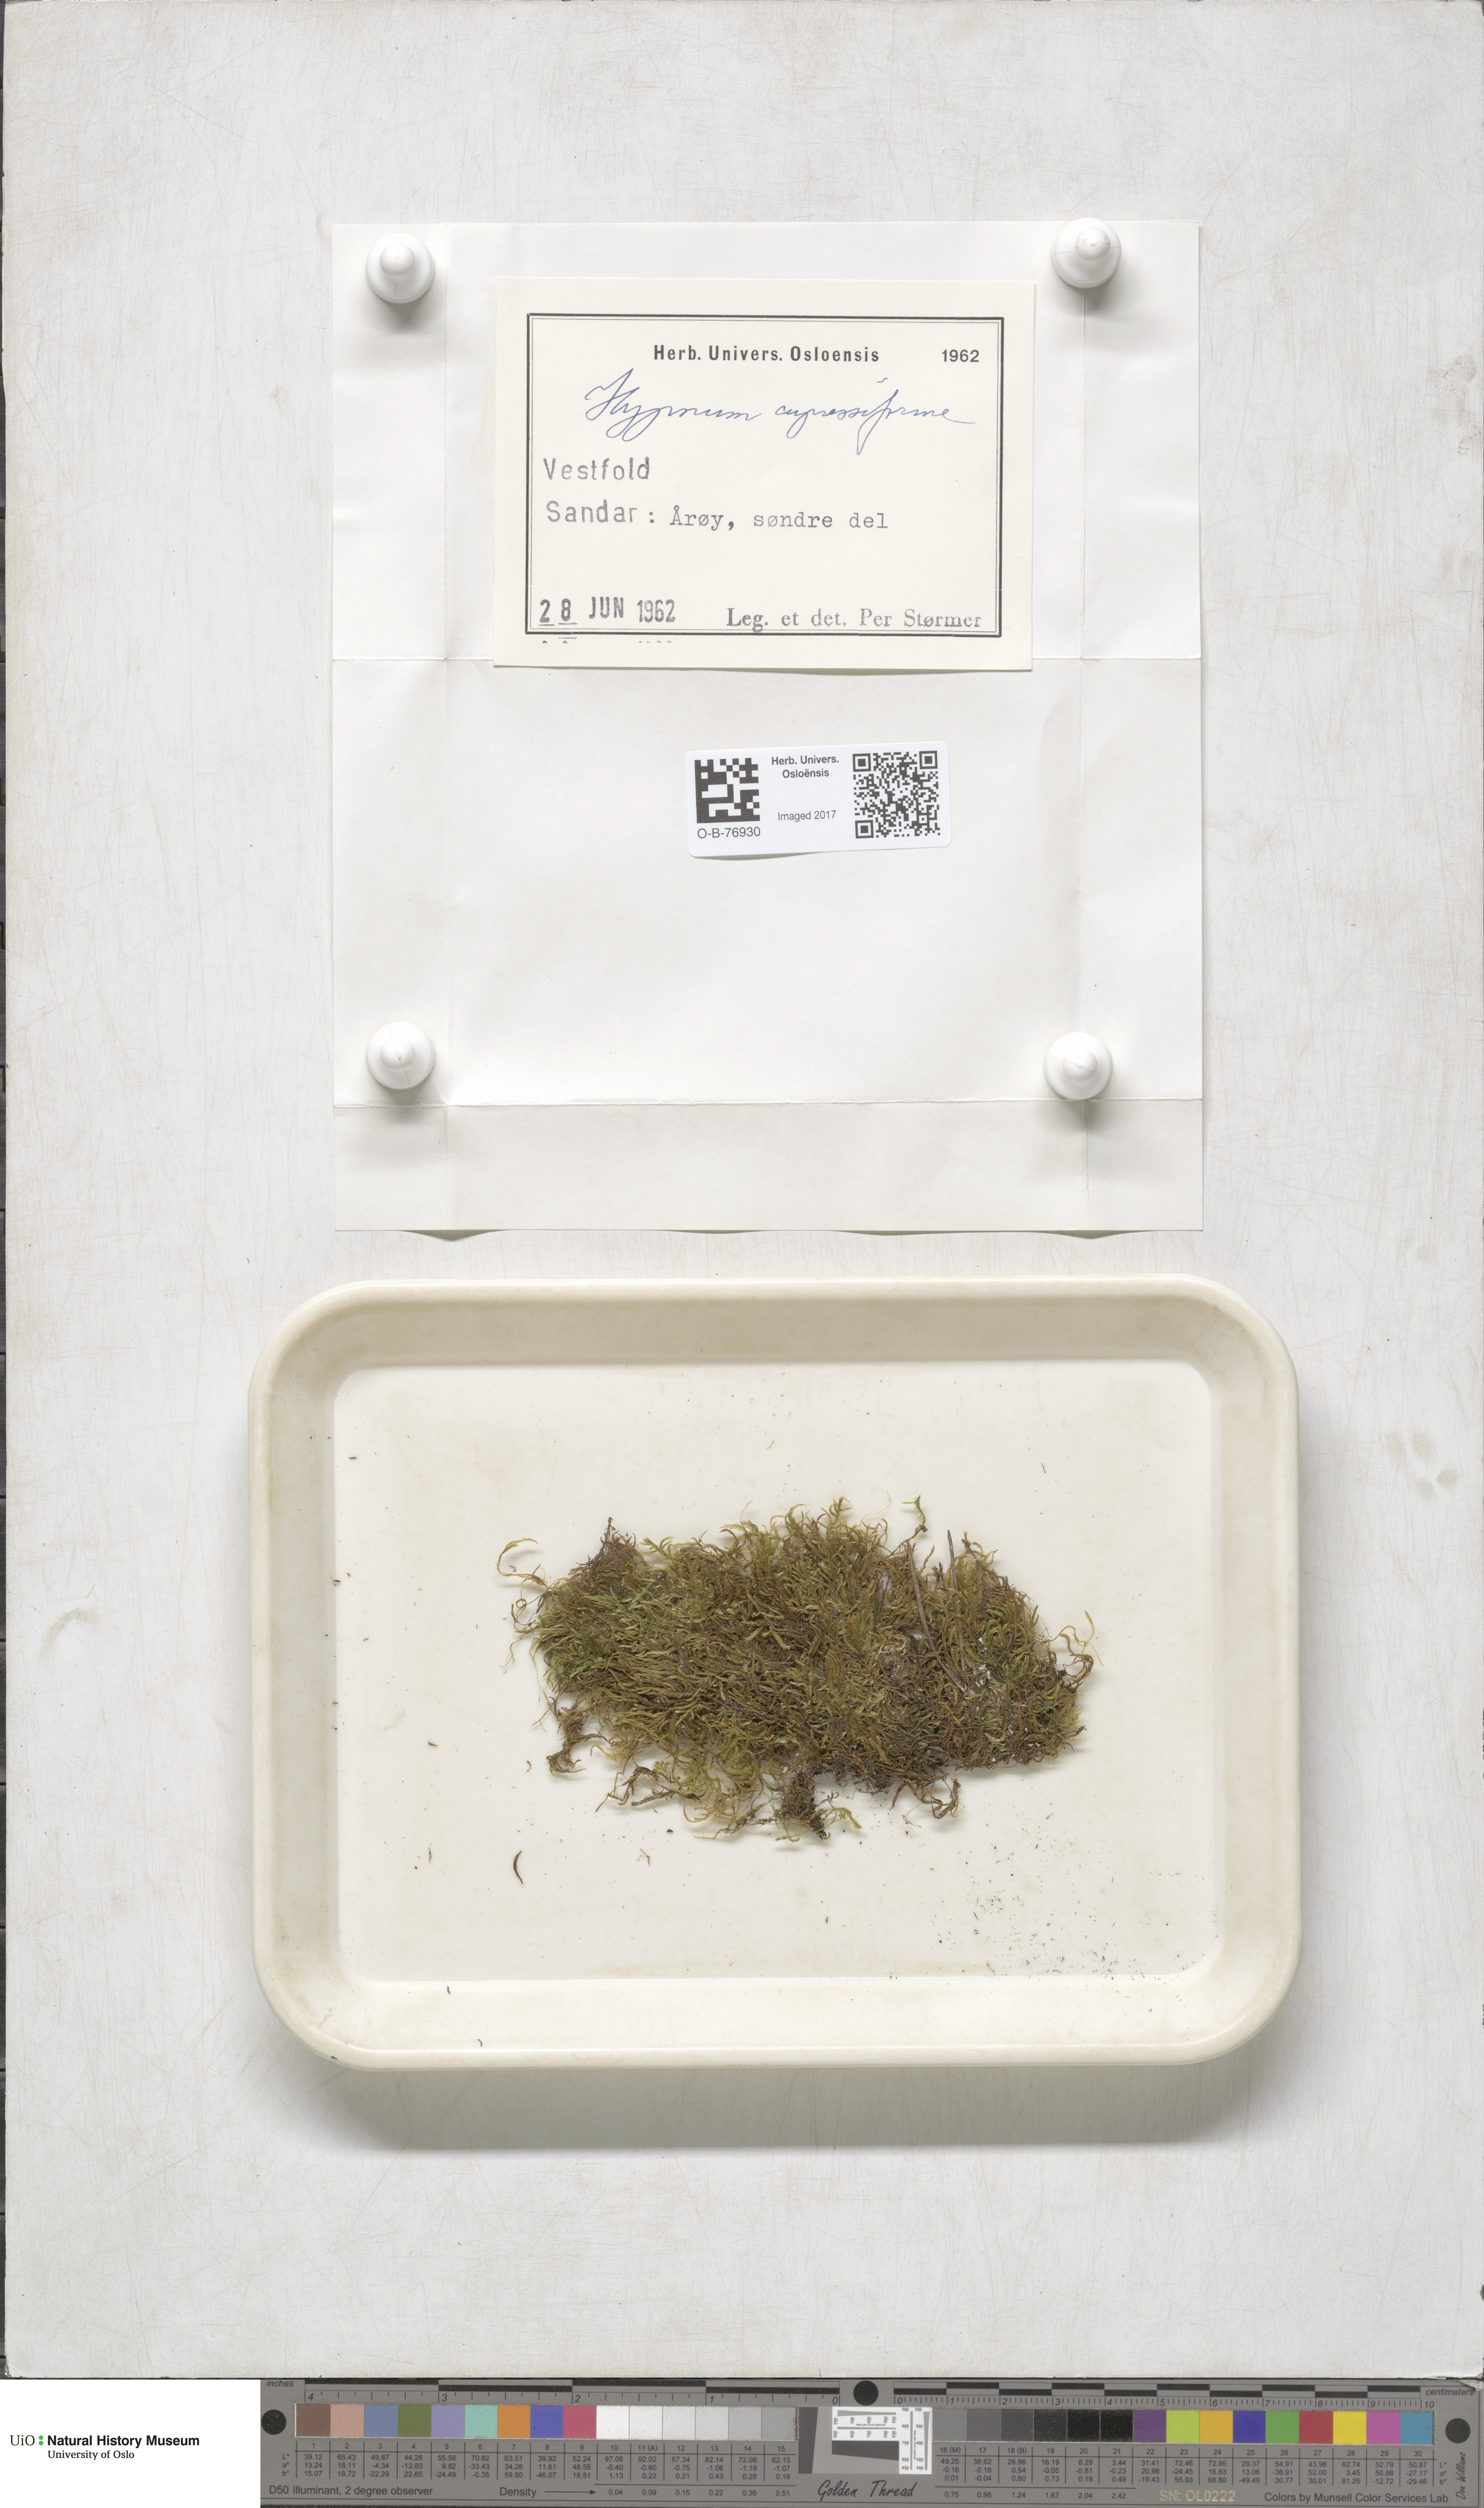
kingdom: Plantae
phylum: Bryophyta
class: Bryopsida
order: Hypnales
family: Hypnaceae
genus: Hypnum
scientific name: Hypnum cupressiforme
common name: Cypress-leaved plait-moss
